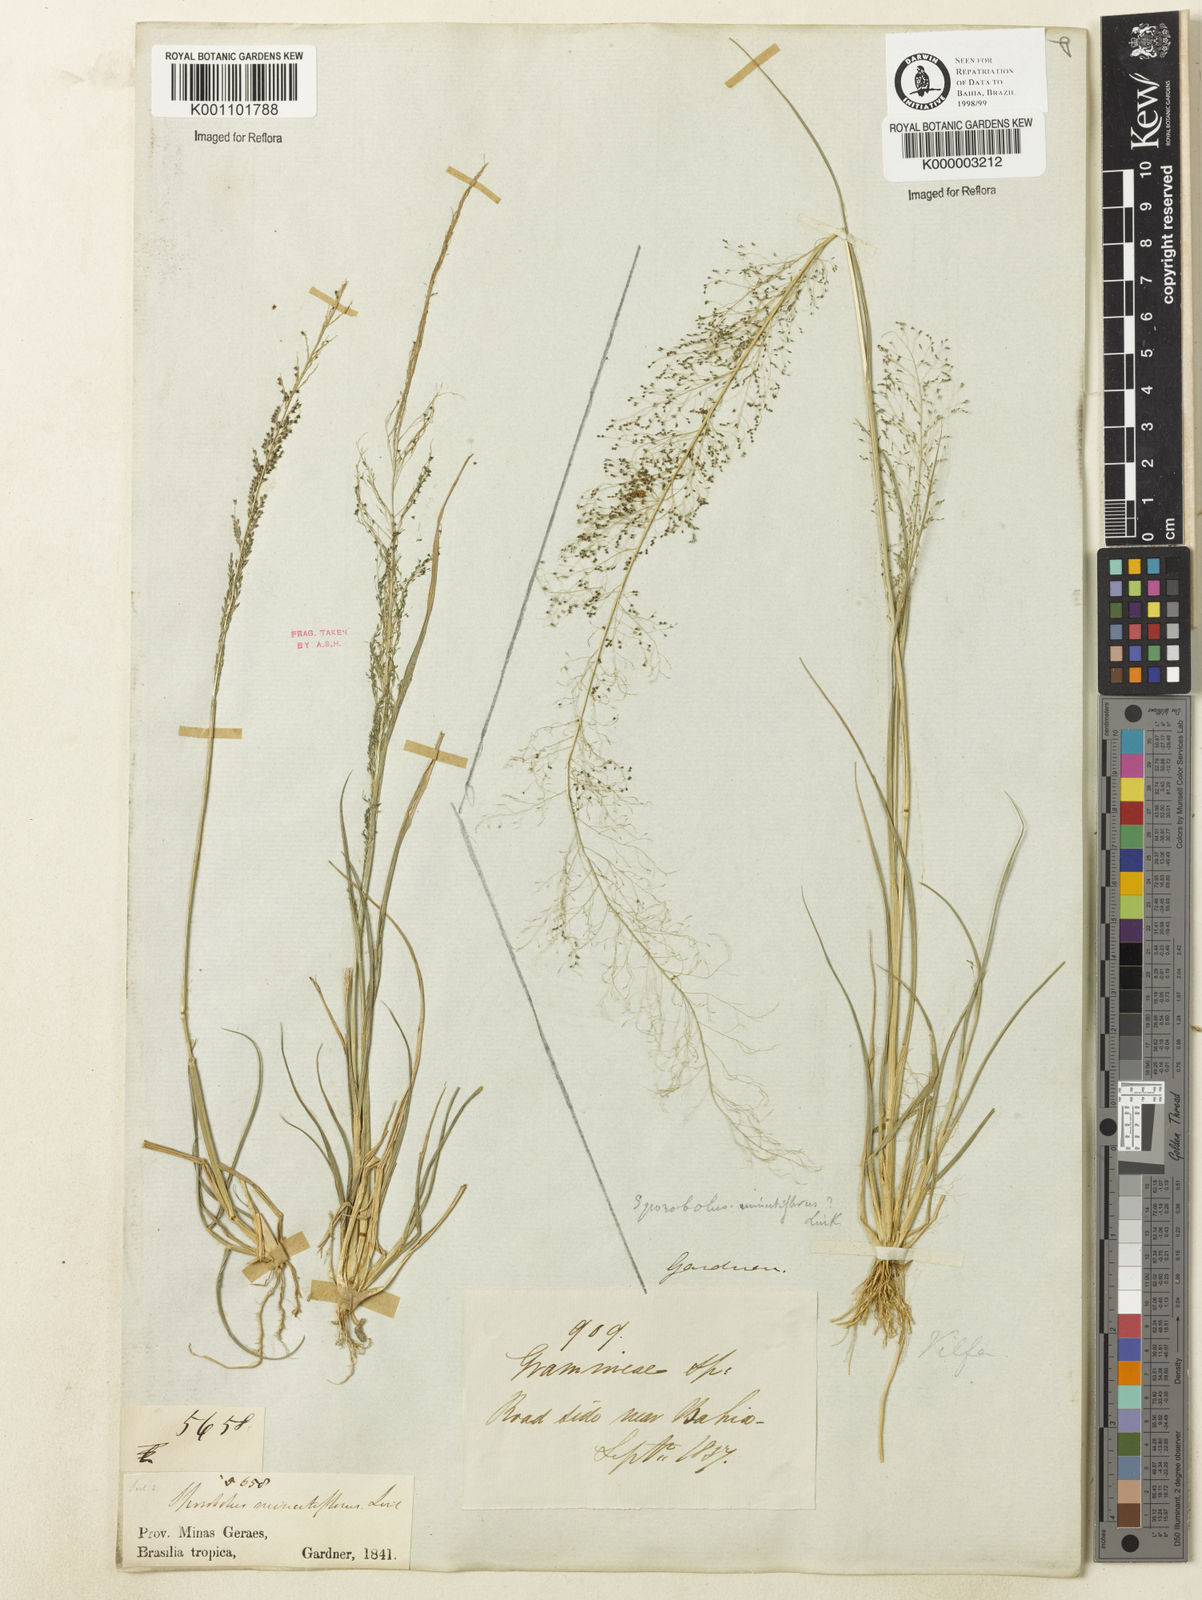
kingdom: Plantae
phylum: Tracheophyta
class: Liliopsida
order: Poales
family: Poaceae
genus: Sporobolus
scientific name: Sporobolus tenuissimus
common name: Tropical dropseed
